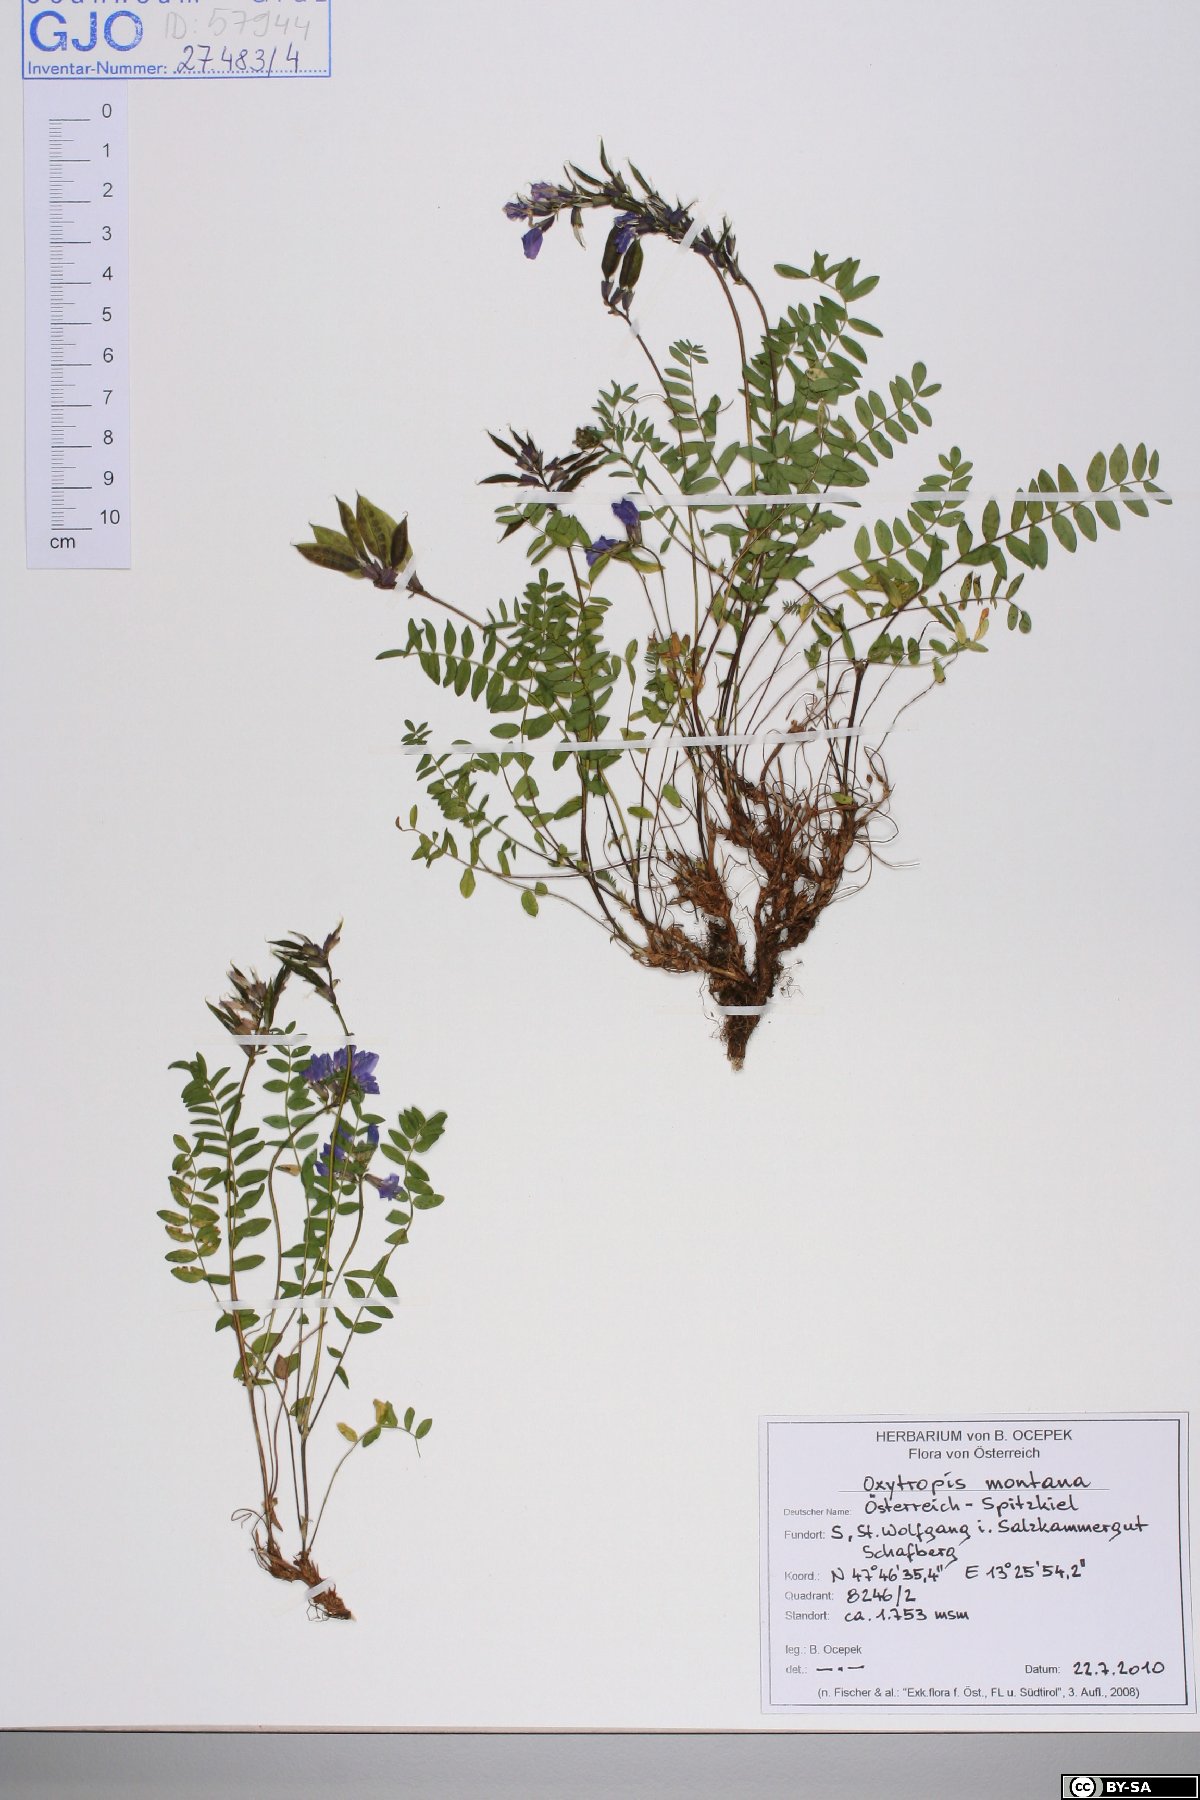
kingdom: Plantae
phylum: Tracheophyta
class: Magnoliopsida
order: Fabales
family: Fabaceae
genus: Oxytropis
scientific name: Oxytropis montana
